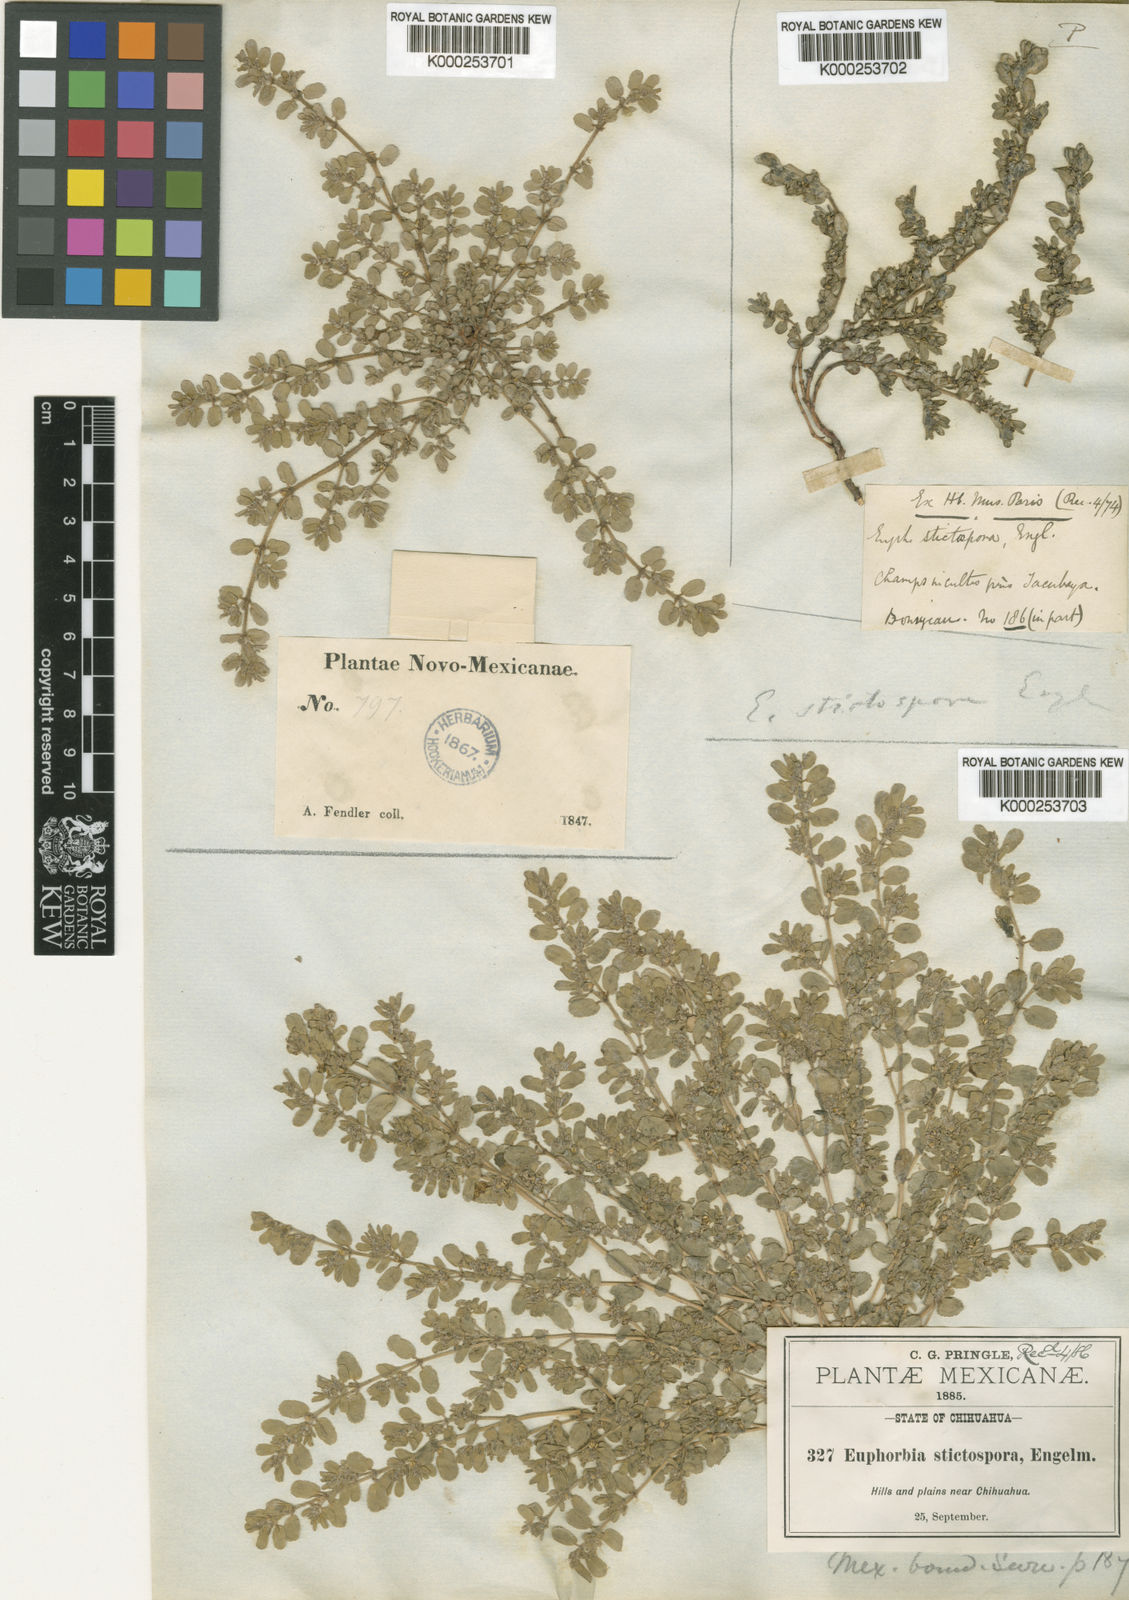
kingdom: Plantae
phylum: Tracheophyta
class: Magnoliopsida
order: Malpighiales
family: Euphorbiaceae
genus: Euphorbia
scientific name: Euphorbia stictospora
